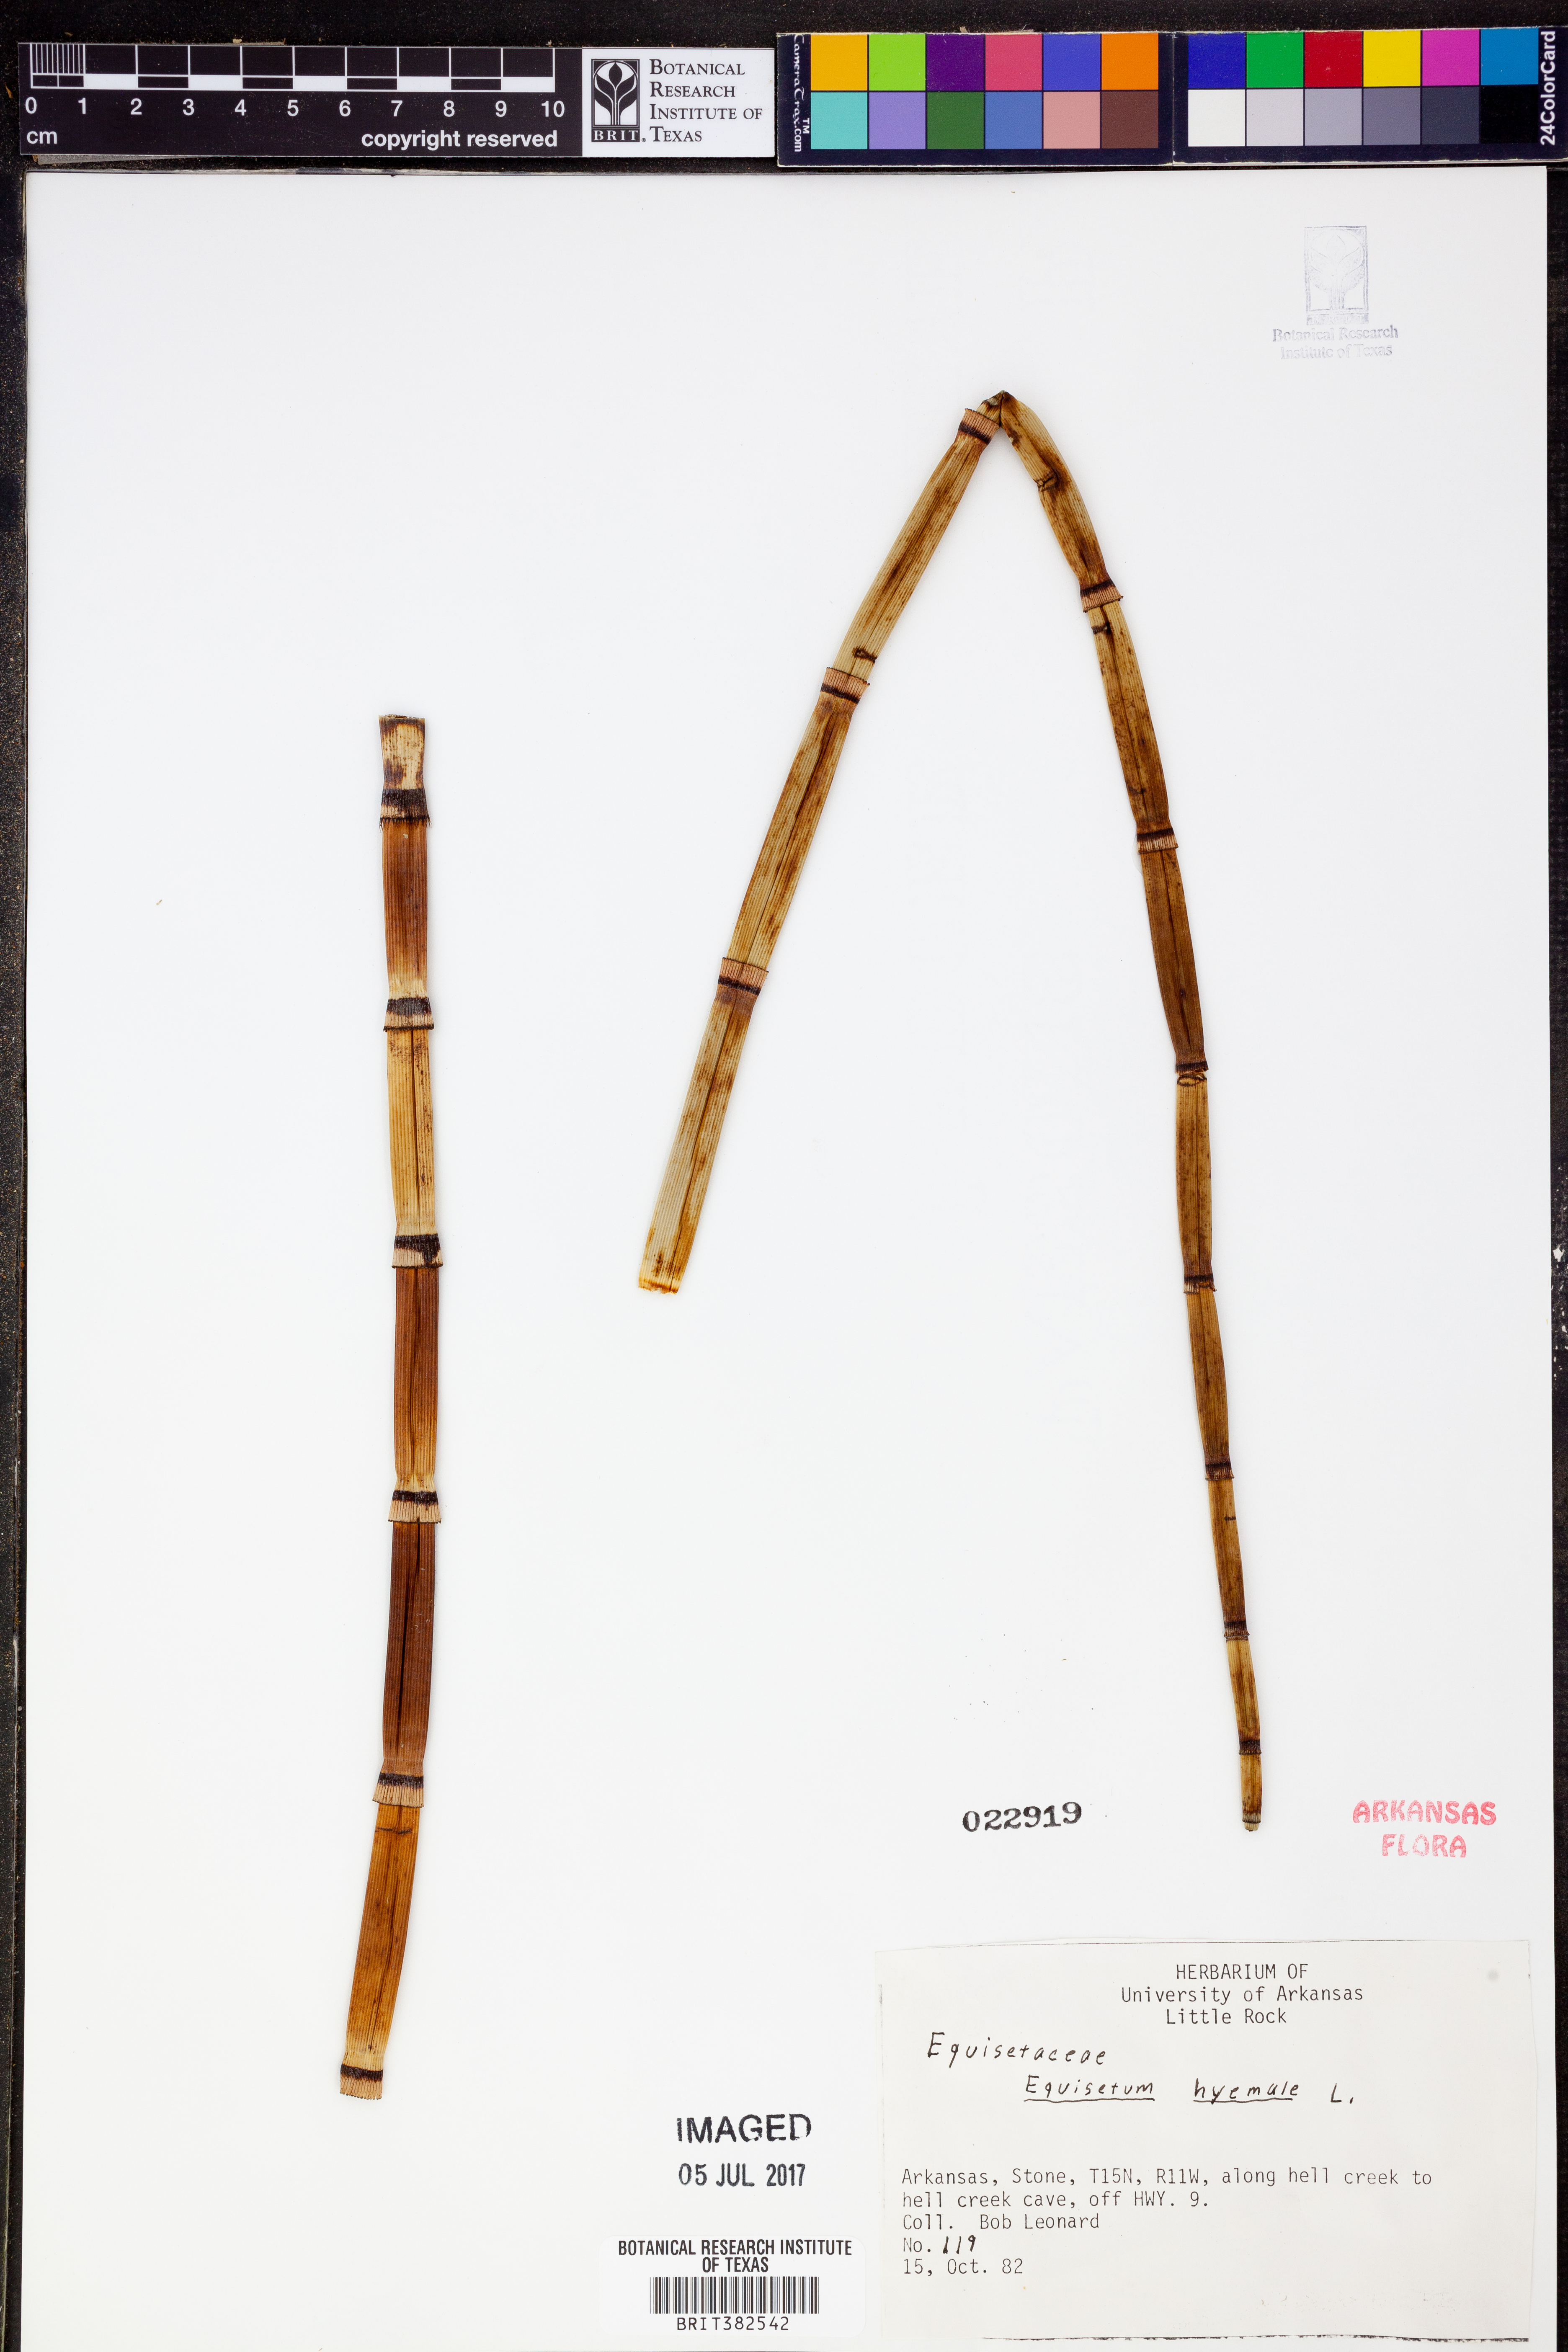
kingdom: Plantae
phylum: Tracheophyta
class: Polypodiopsida
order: Equisetales
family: Equisetaceae
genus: Equisetum
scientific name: Equisetum hyemale
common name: Rough horsetail
